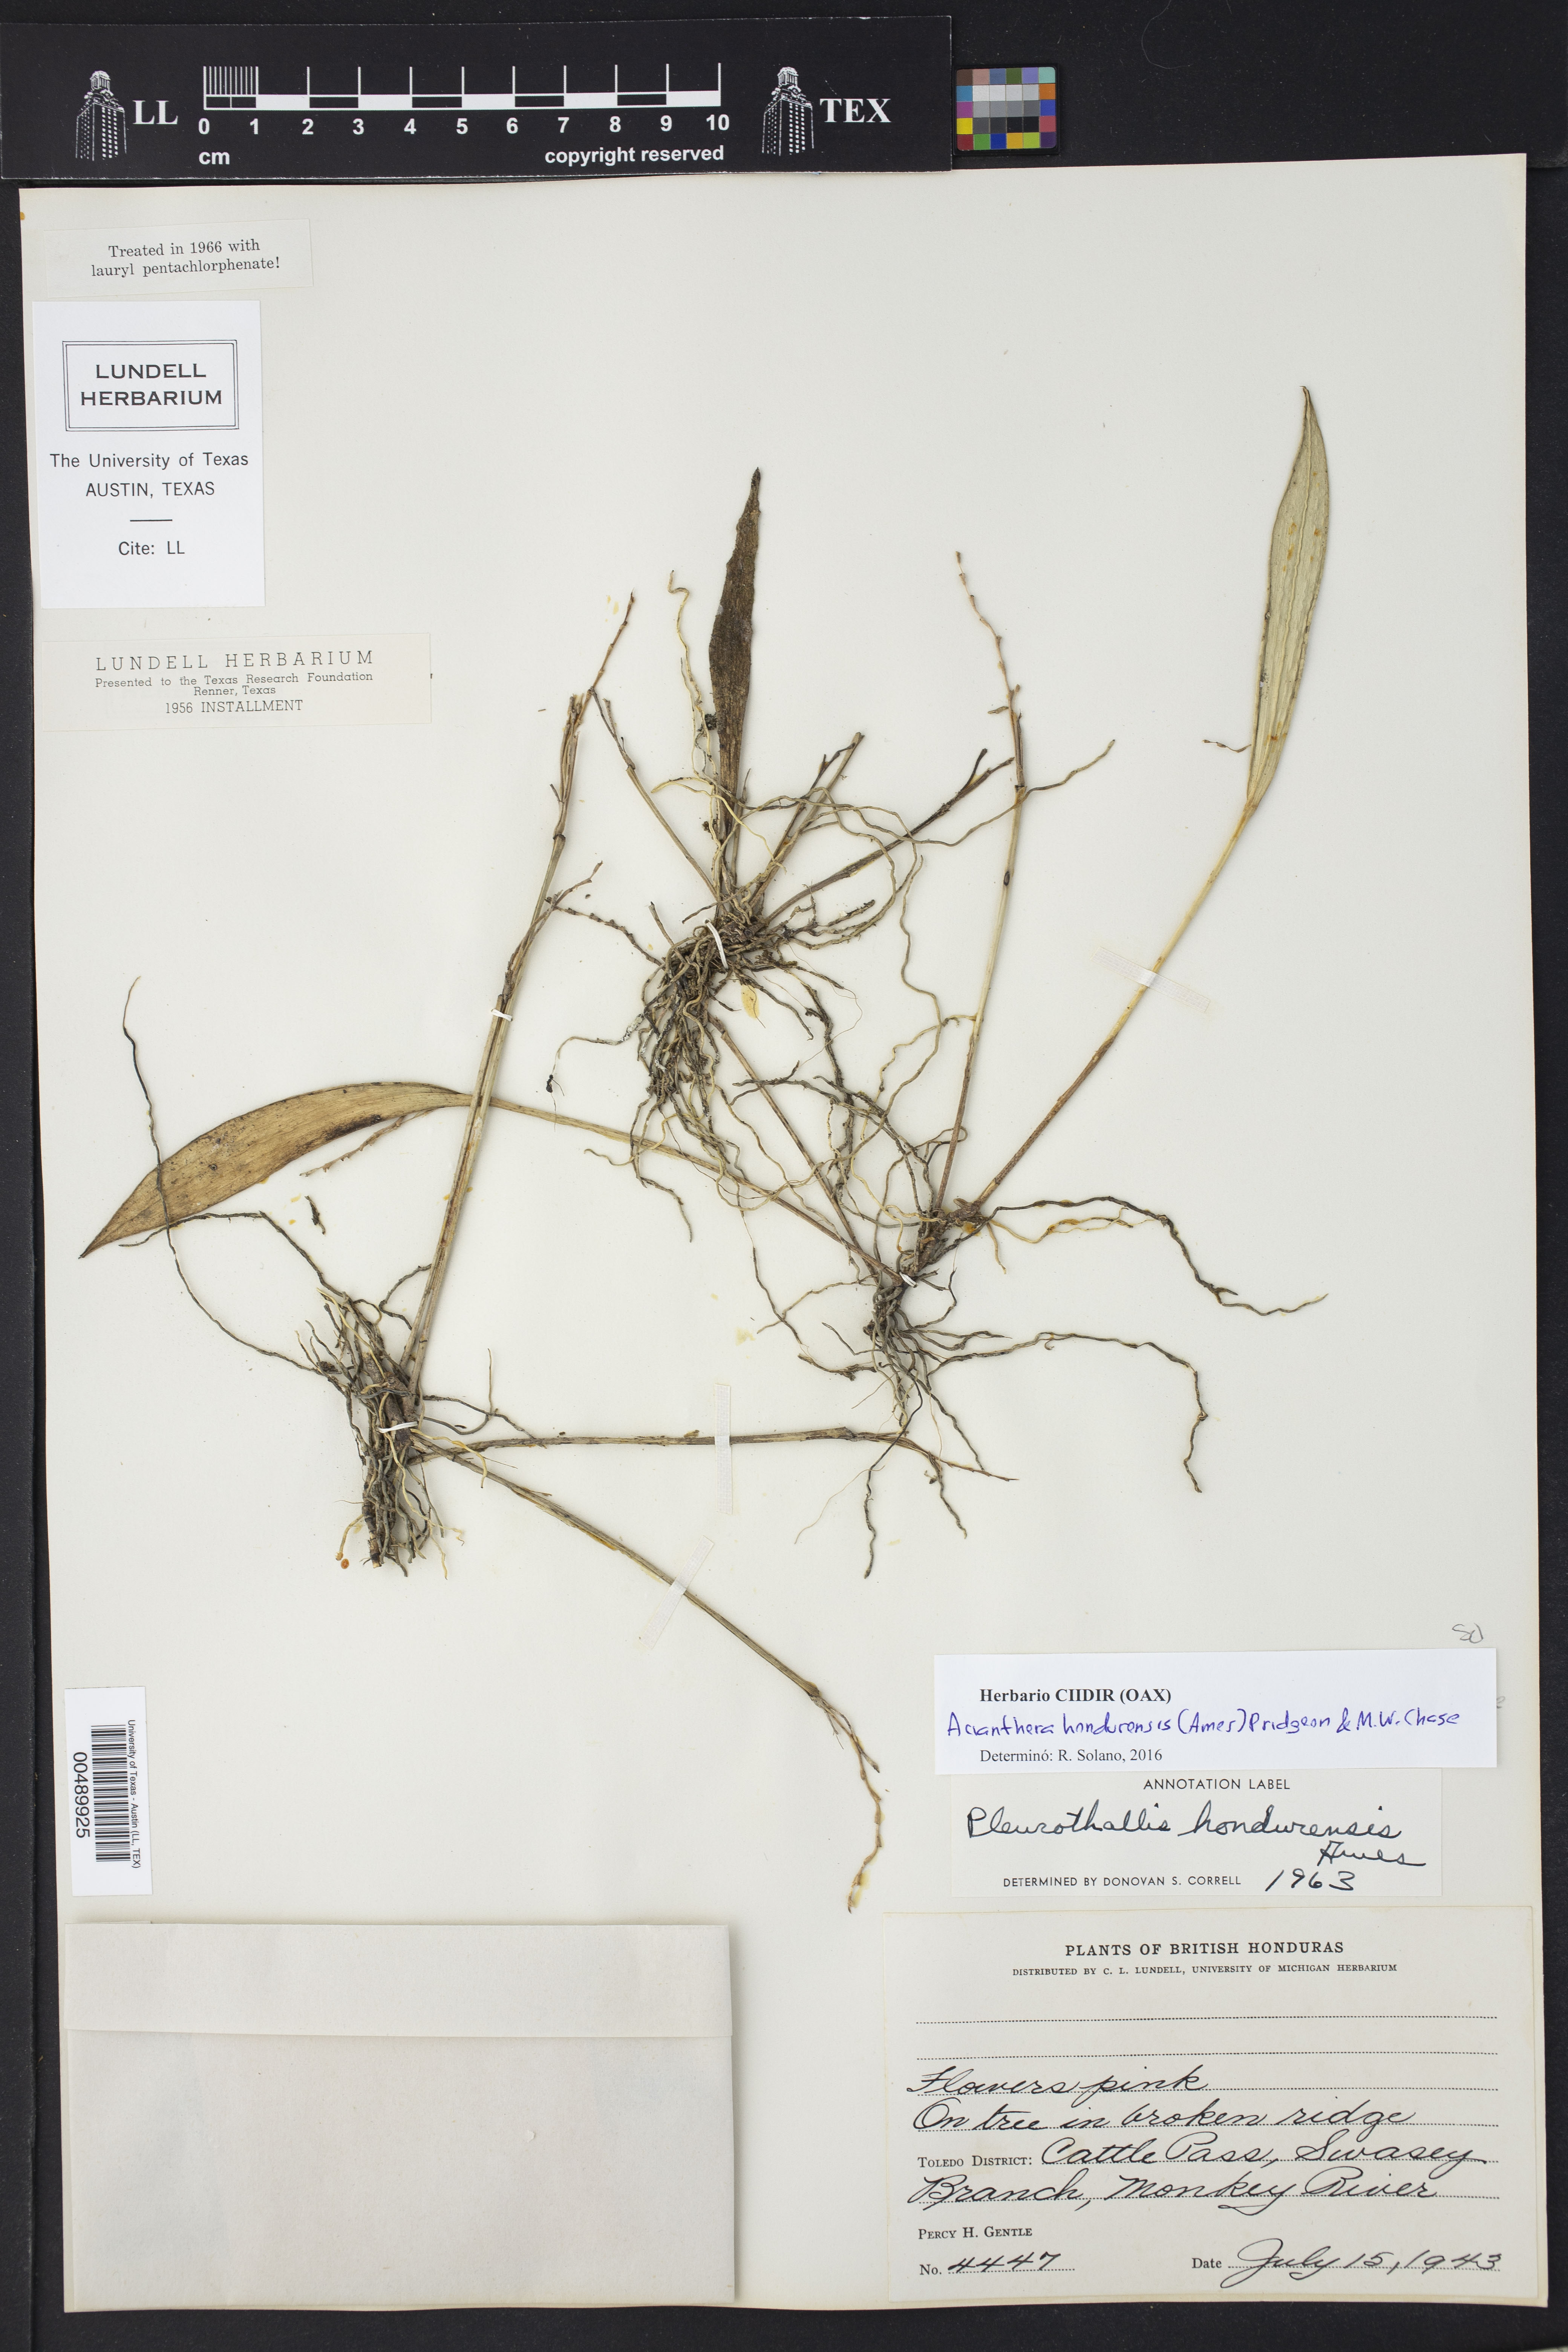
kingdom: Plantae
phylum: Tracheophyta
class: Liliopsida
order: Asparagales
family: Orchidaceae
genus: Acianthera
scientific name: Acianthera hondurensis
